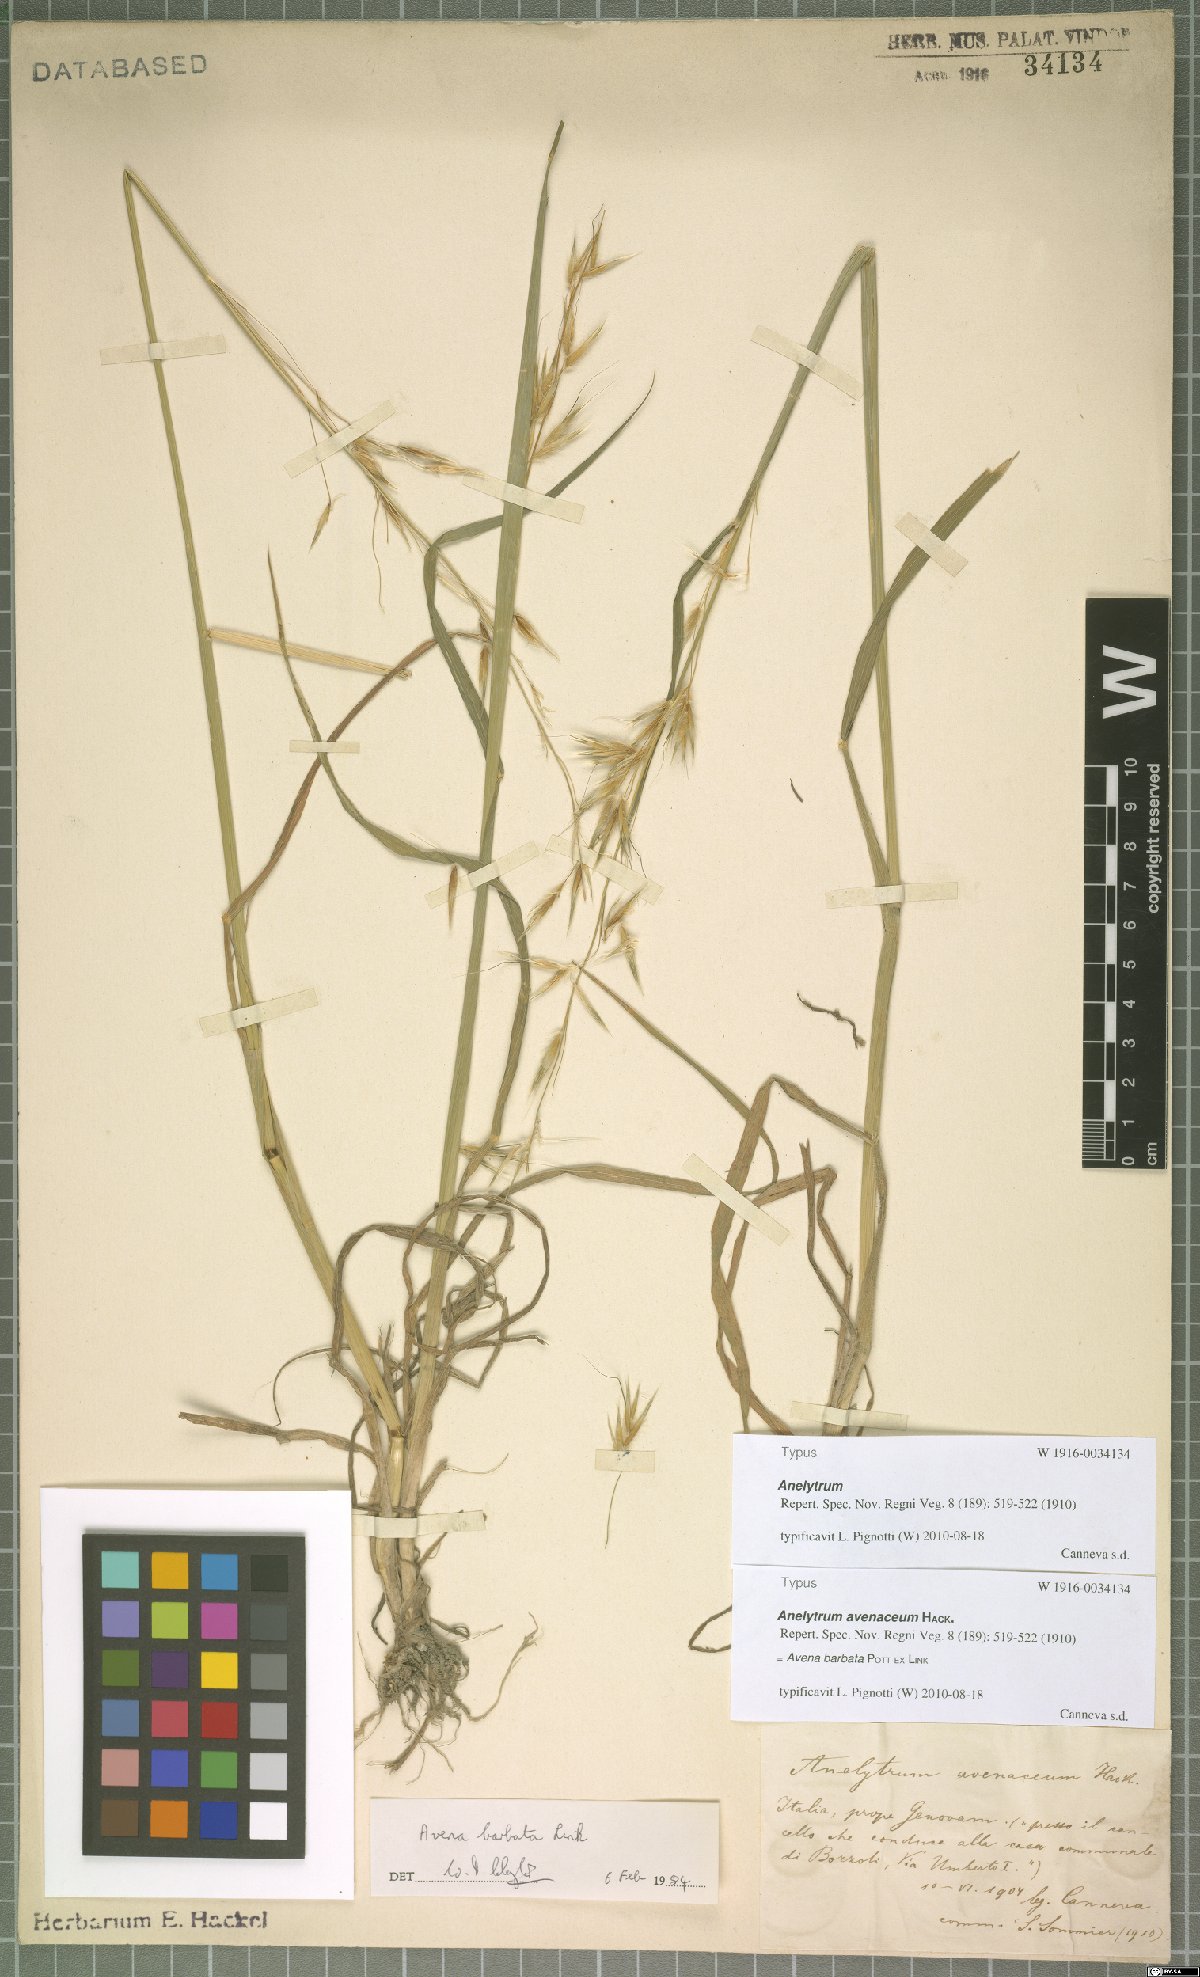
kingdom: Plantae
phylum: Tracheophyta
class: Liliopsida
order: Poales
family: Poaceae
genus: Avena
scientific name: Avena barbata
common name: Slender oat
